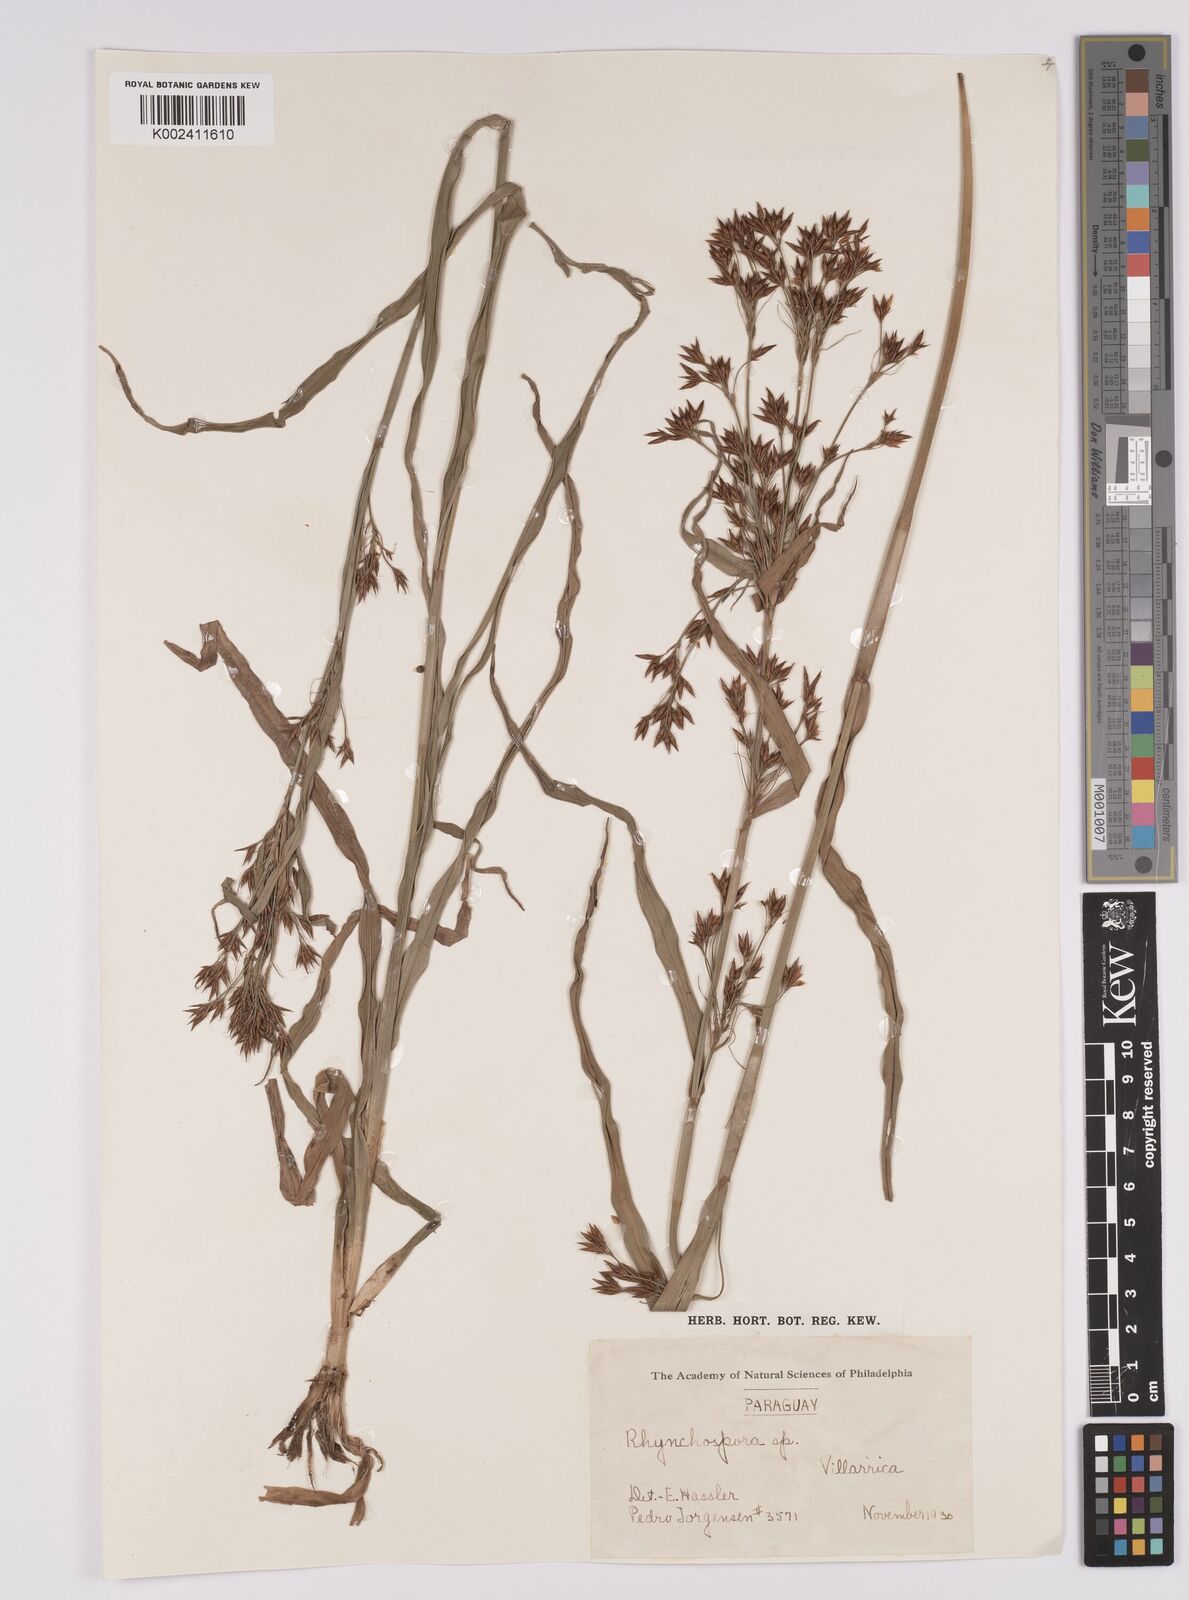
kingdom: Plantae
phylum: Tracheophyta
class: Liliopsida
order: Poales
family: Cyperaceae
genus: Rhynchospora
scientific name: Rhynchospora asperula
